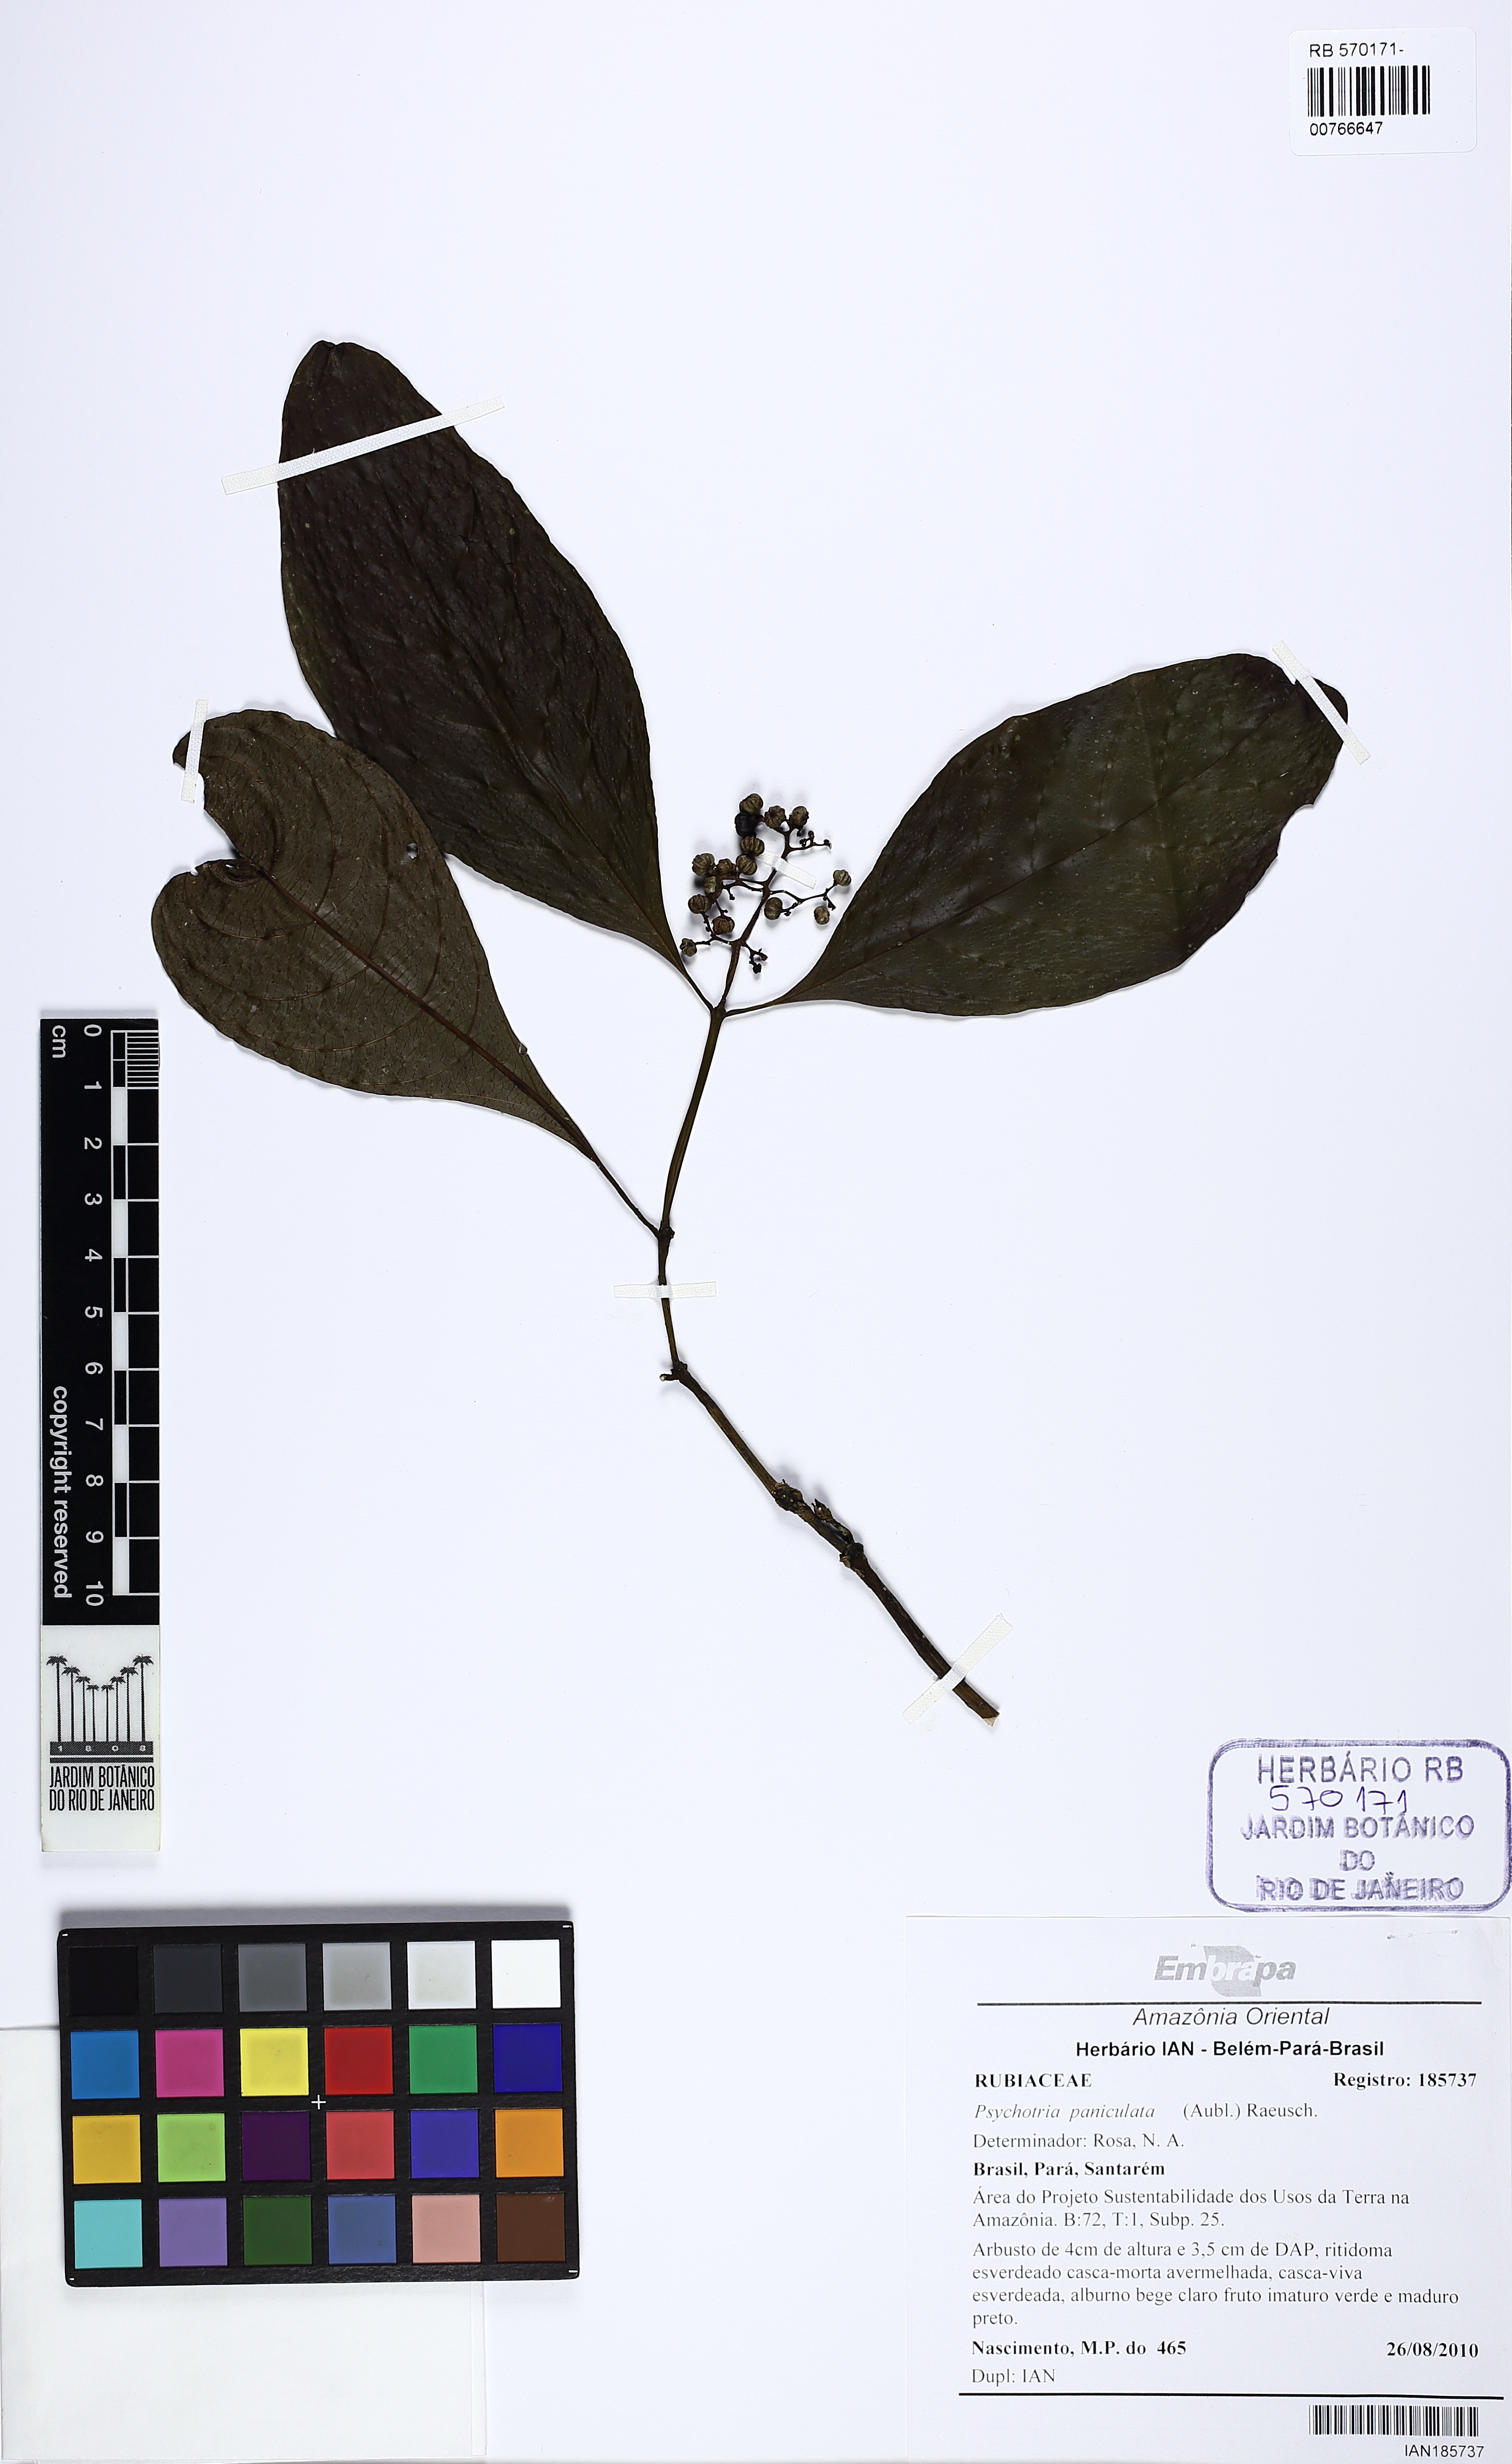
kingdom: Plantae
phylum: Tracheophyta
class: Magnoliopsida
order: Gentianales
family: Rubiaceae
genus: Palicourea
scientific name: Palicourea paniculata
